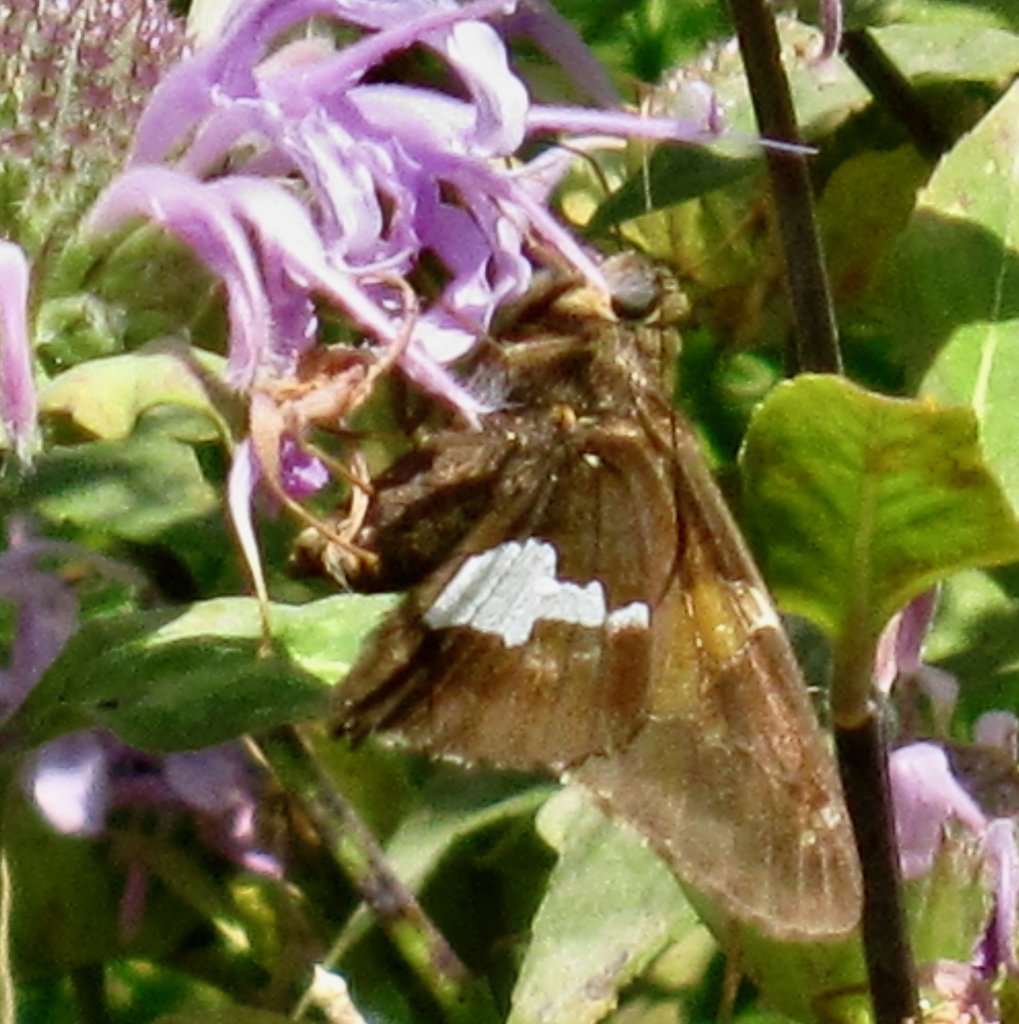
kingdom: Animalia
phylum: Arthropoda
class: Insecta
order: Lepidoptera
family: Hesperiidae
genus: Epargyreus
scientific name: Epargyreus clarus
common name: Silver-spotted Skipper
